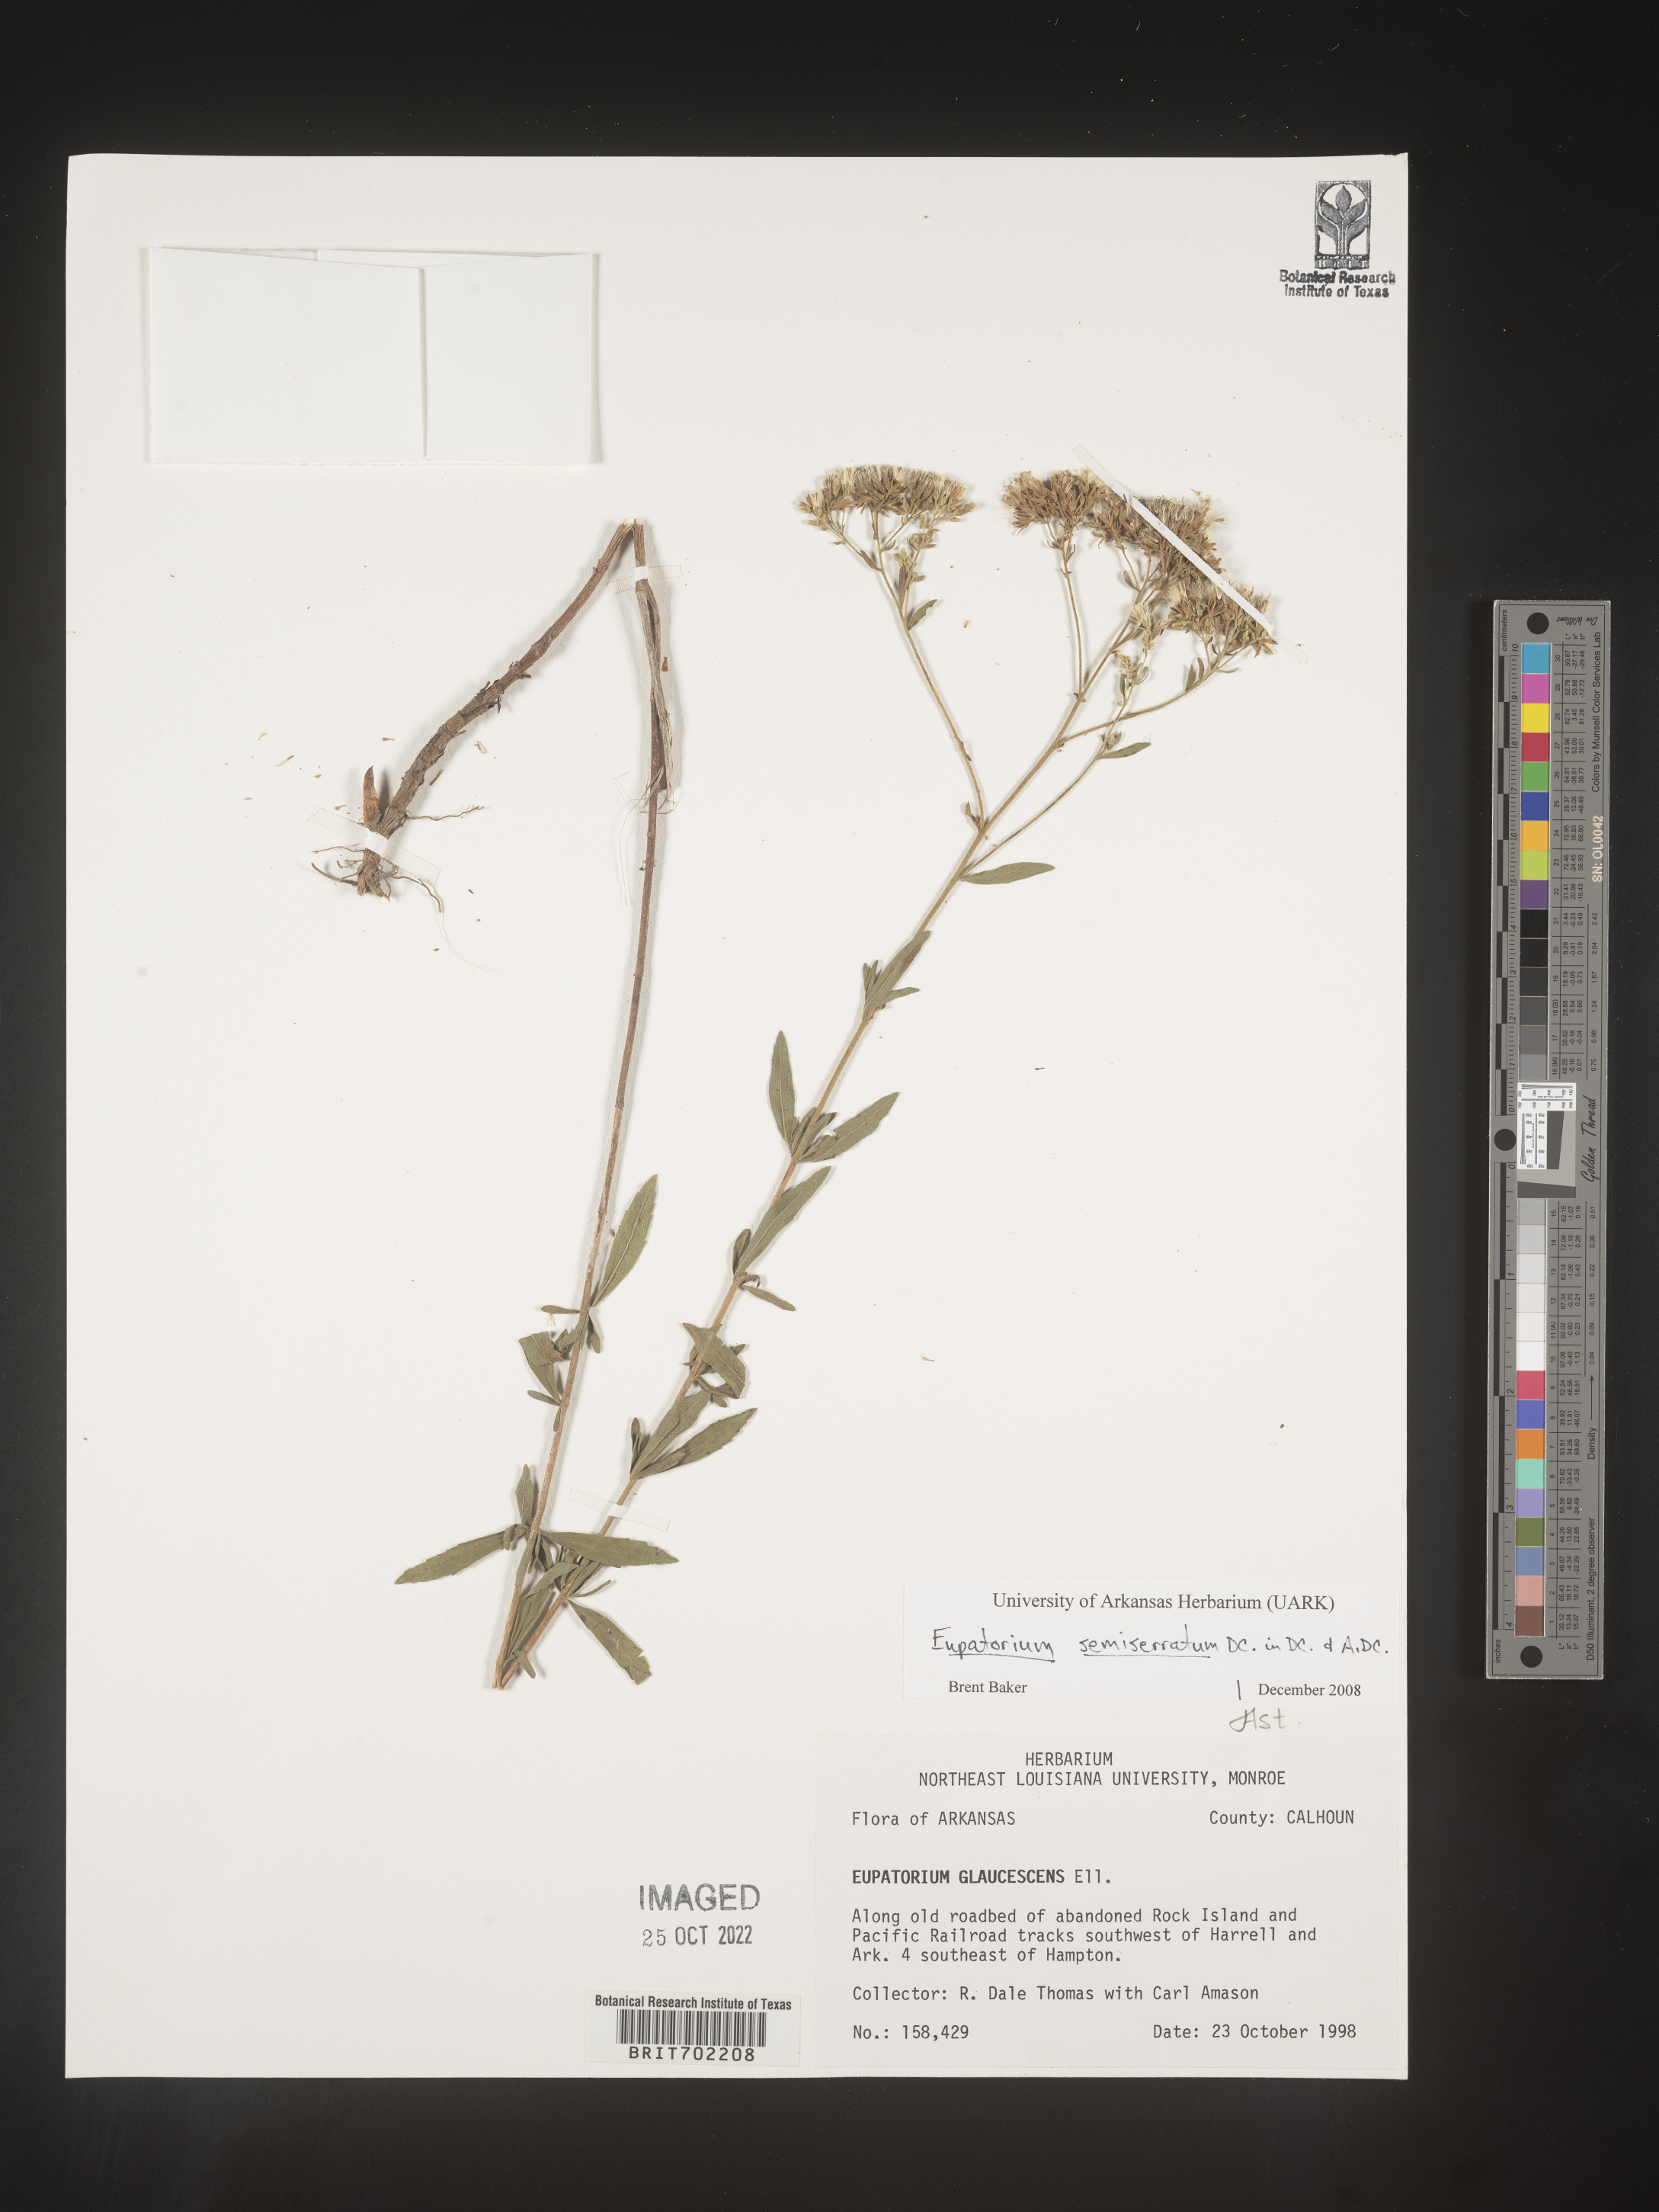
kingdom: Plantae
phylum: Tracheophyta
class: Magnoliopsida
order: Asterales
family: Asteraceae
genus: Eupatorium
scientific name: Eupatorium semiserratum
